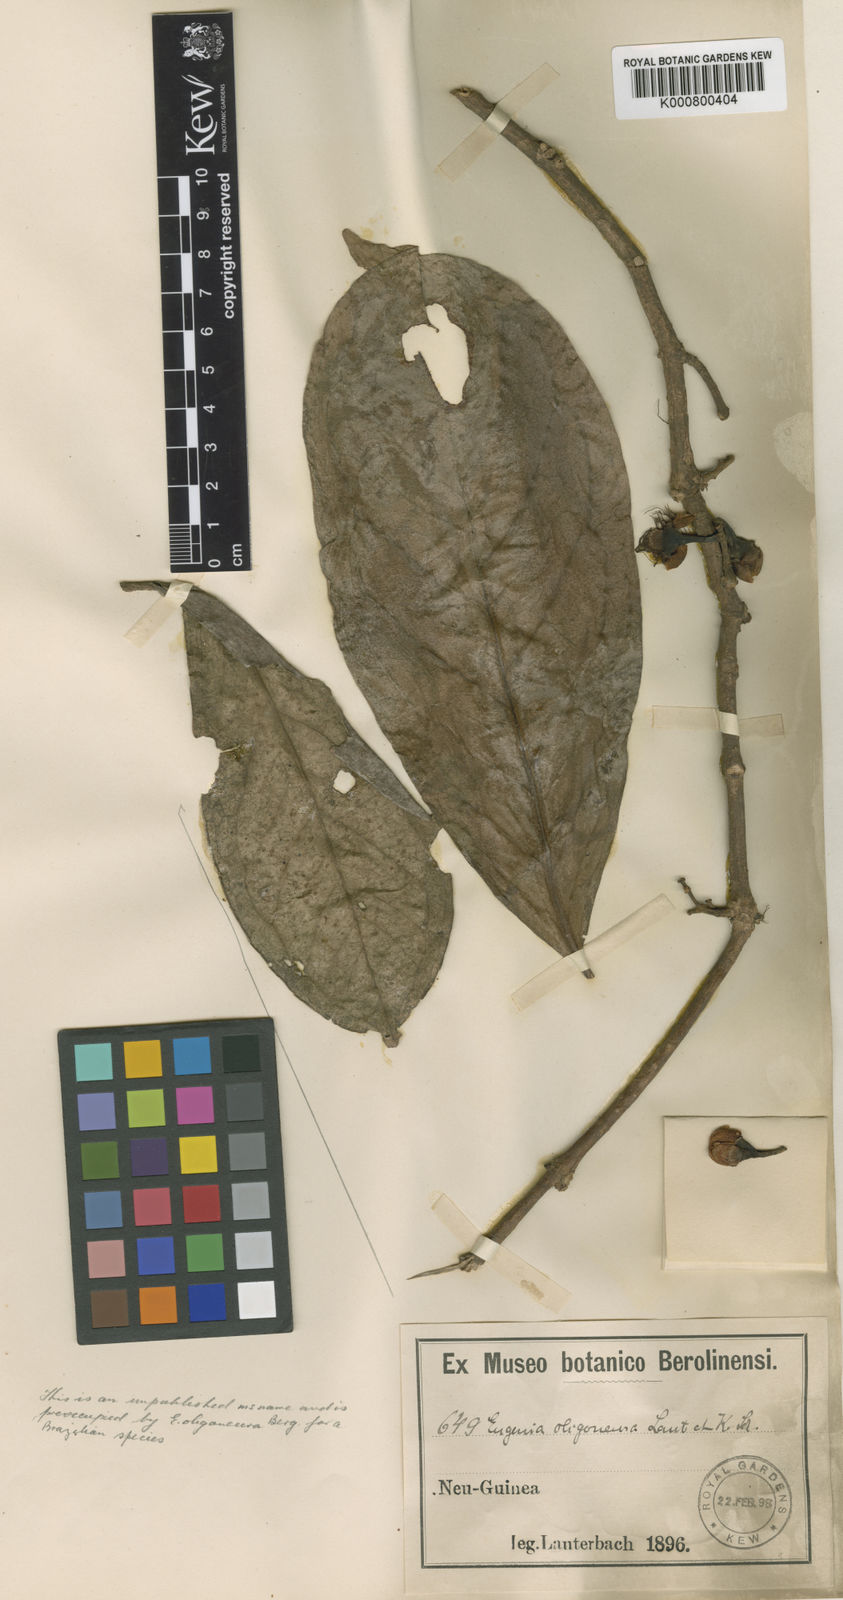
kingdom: Plantae
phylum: Tracheophyta
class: Magnoliopsida
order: Myrtales
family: Myrtaceae
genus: Syzygium
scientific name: Syzygium
